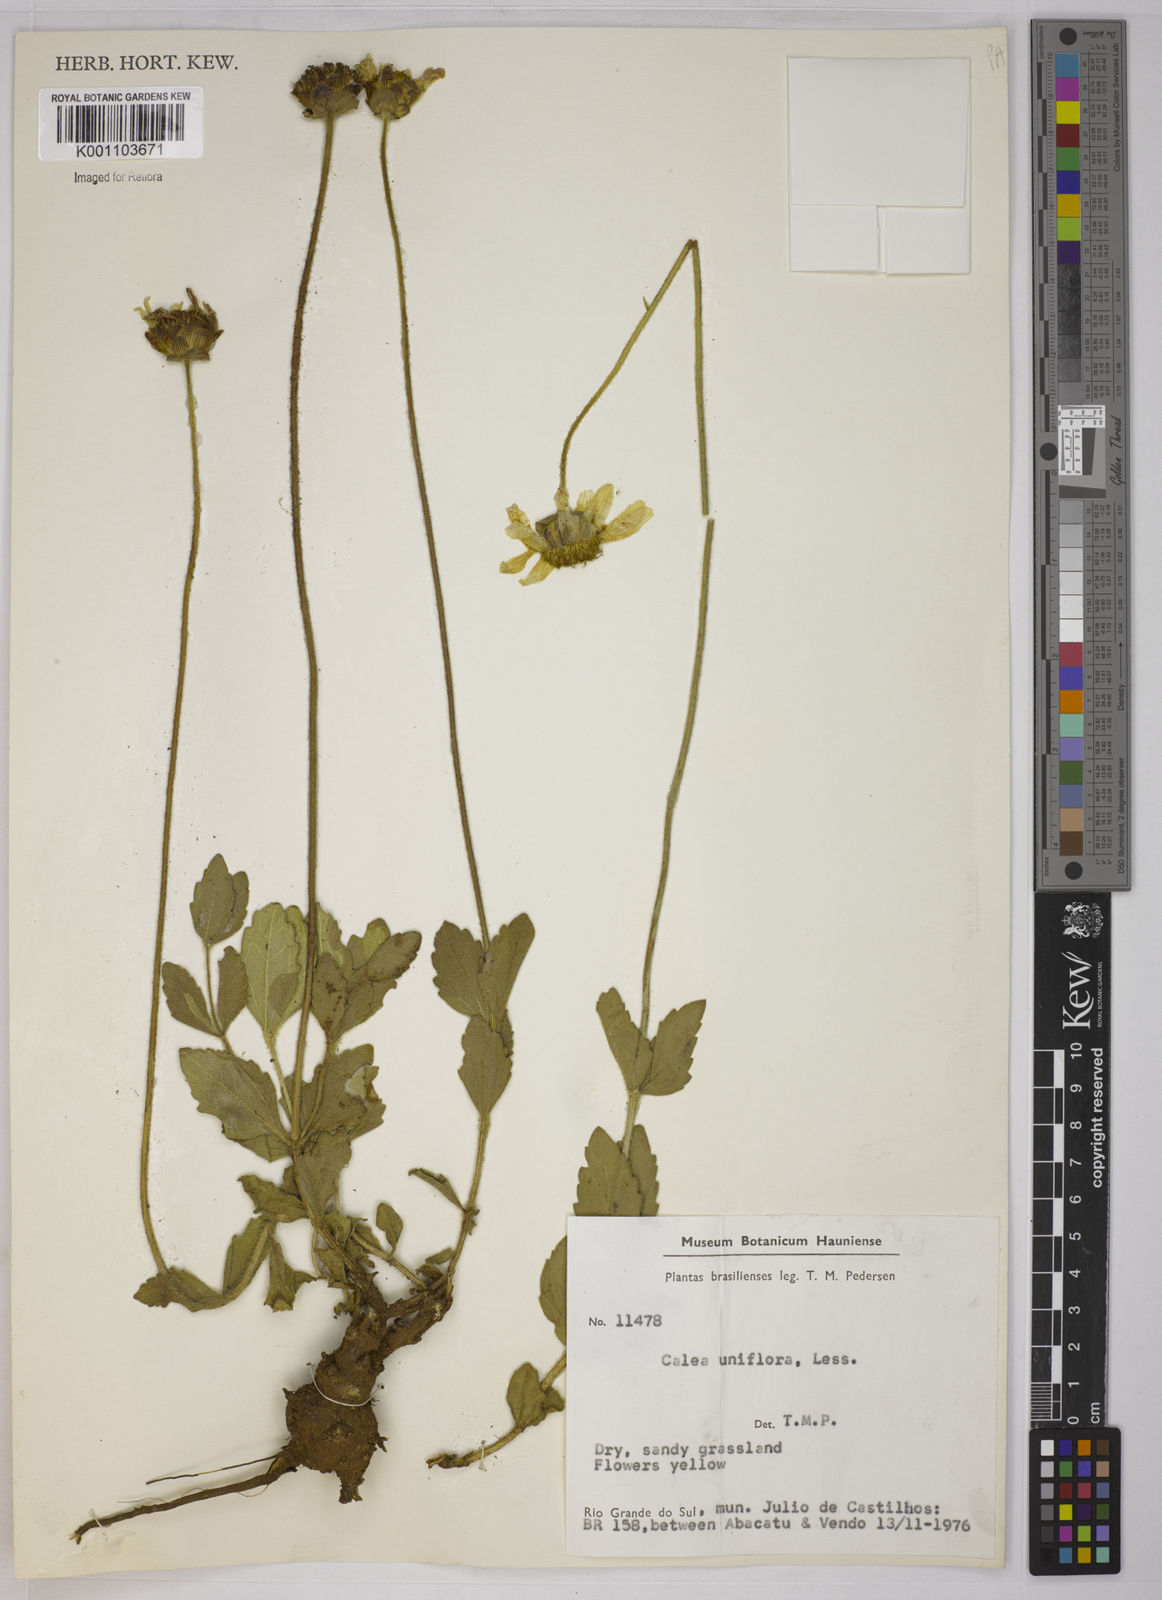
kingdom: Plantae
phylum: Tracheophyta
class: Magnoliopsida
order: Asterales
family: Asteraceae
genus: Calea
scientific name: Calea uniflora
